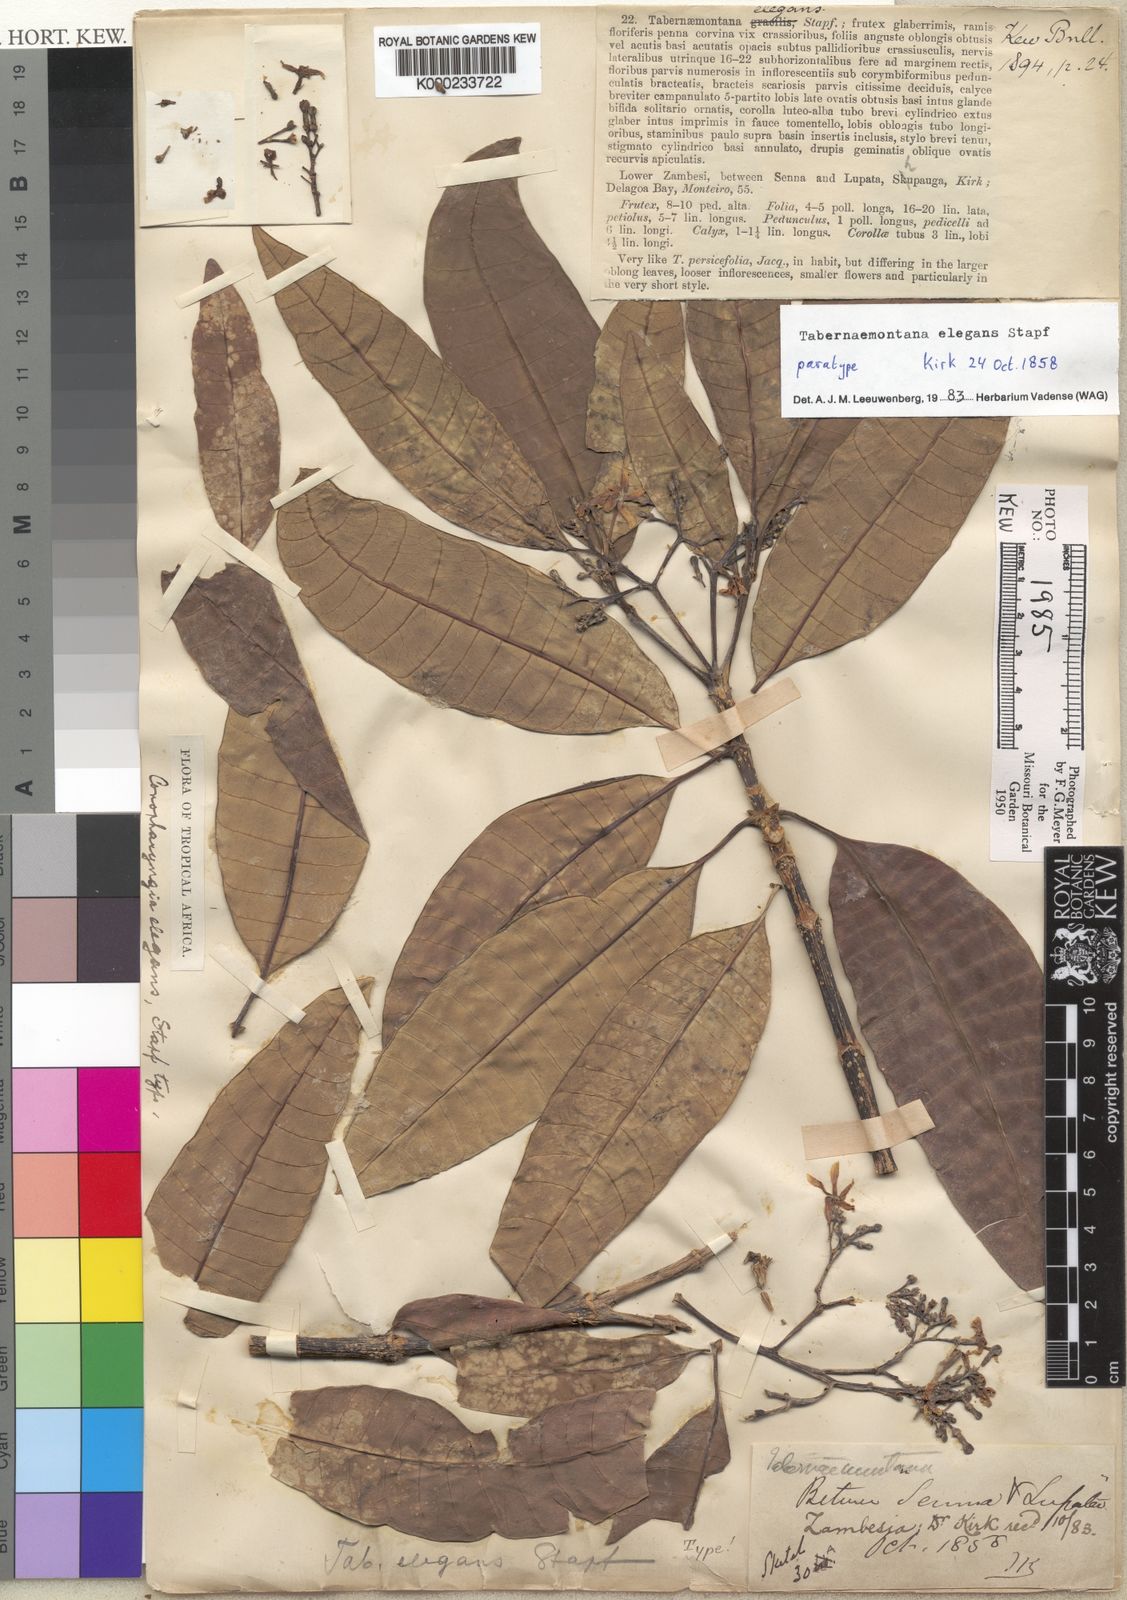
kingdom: Plantae
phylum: Tracheophyta
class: Magnoliopsida
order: Gentianales
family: Apocynaceae
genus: Tabernaemontana
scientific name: Tabernaemontana elegans
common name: Toadtree
